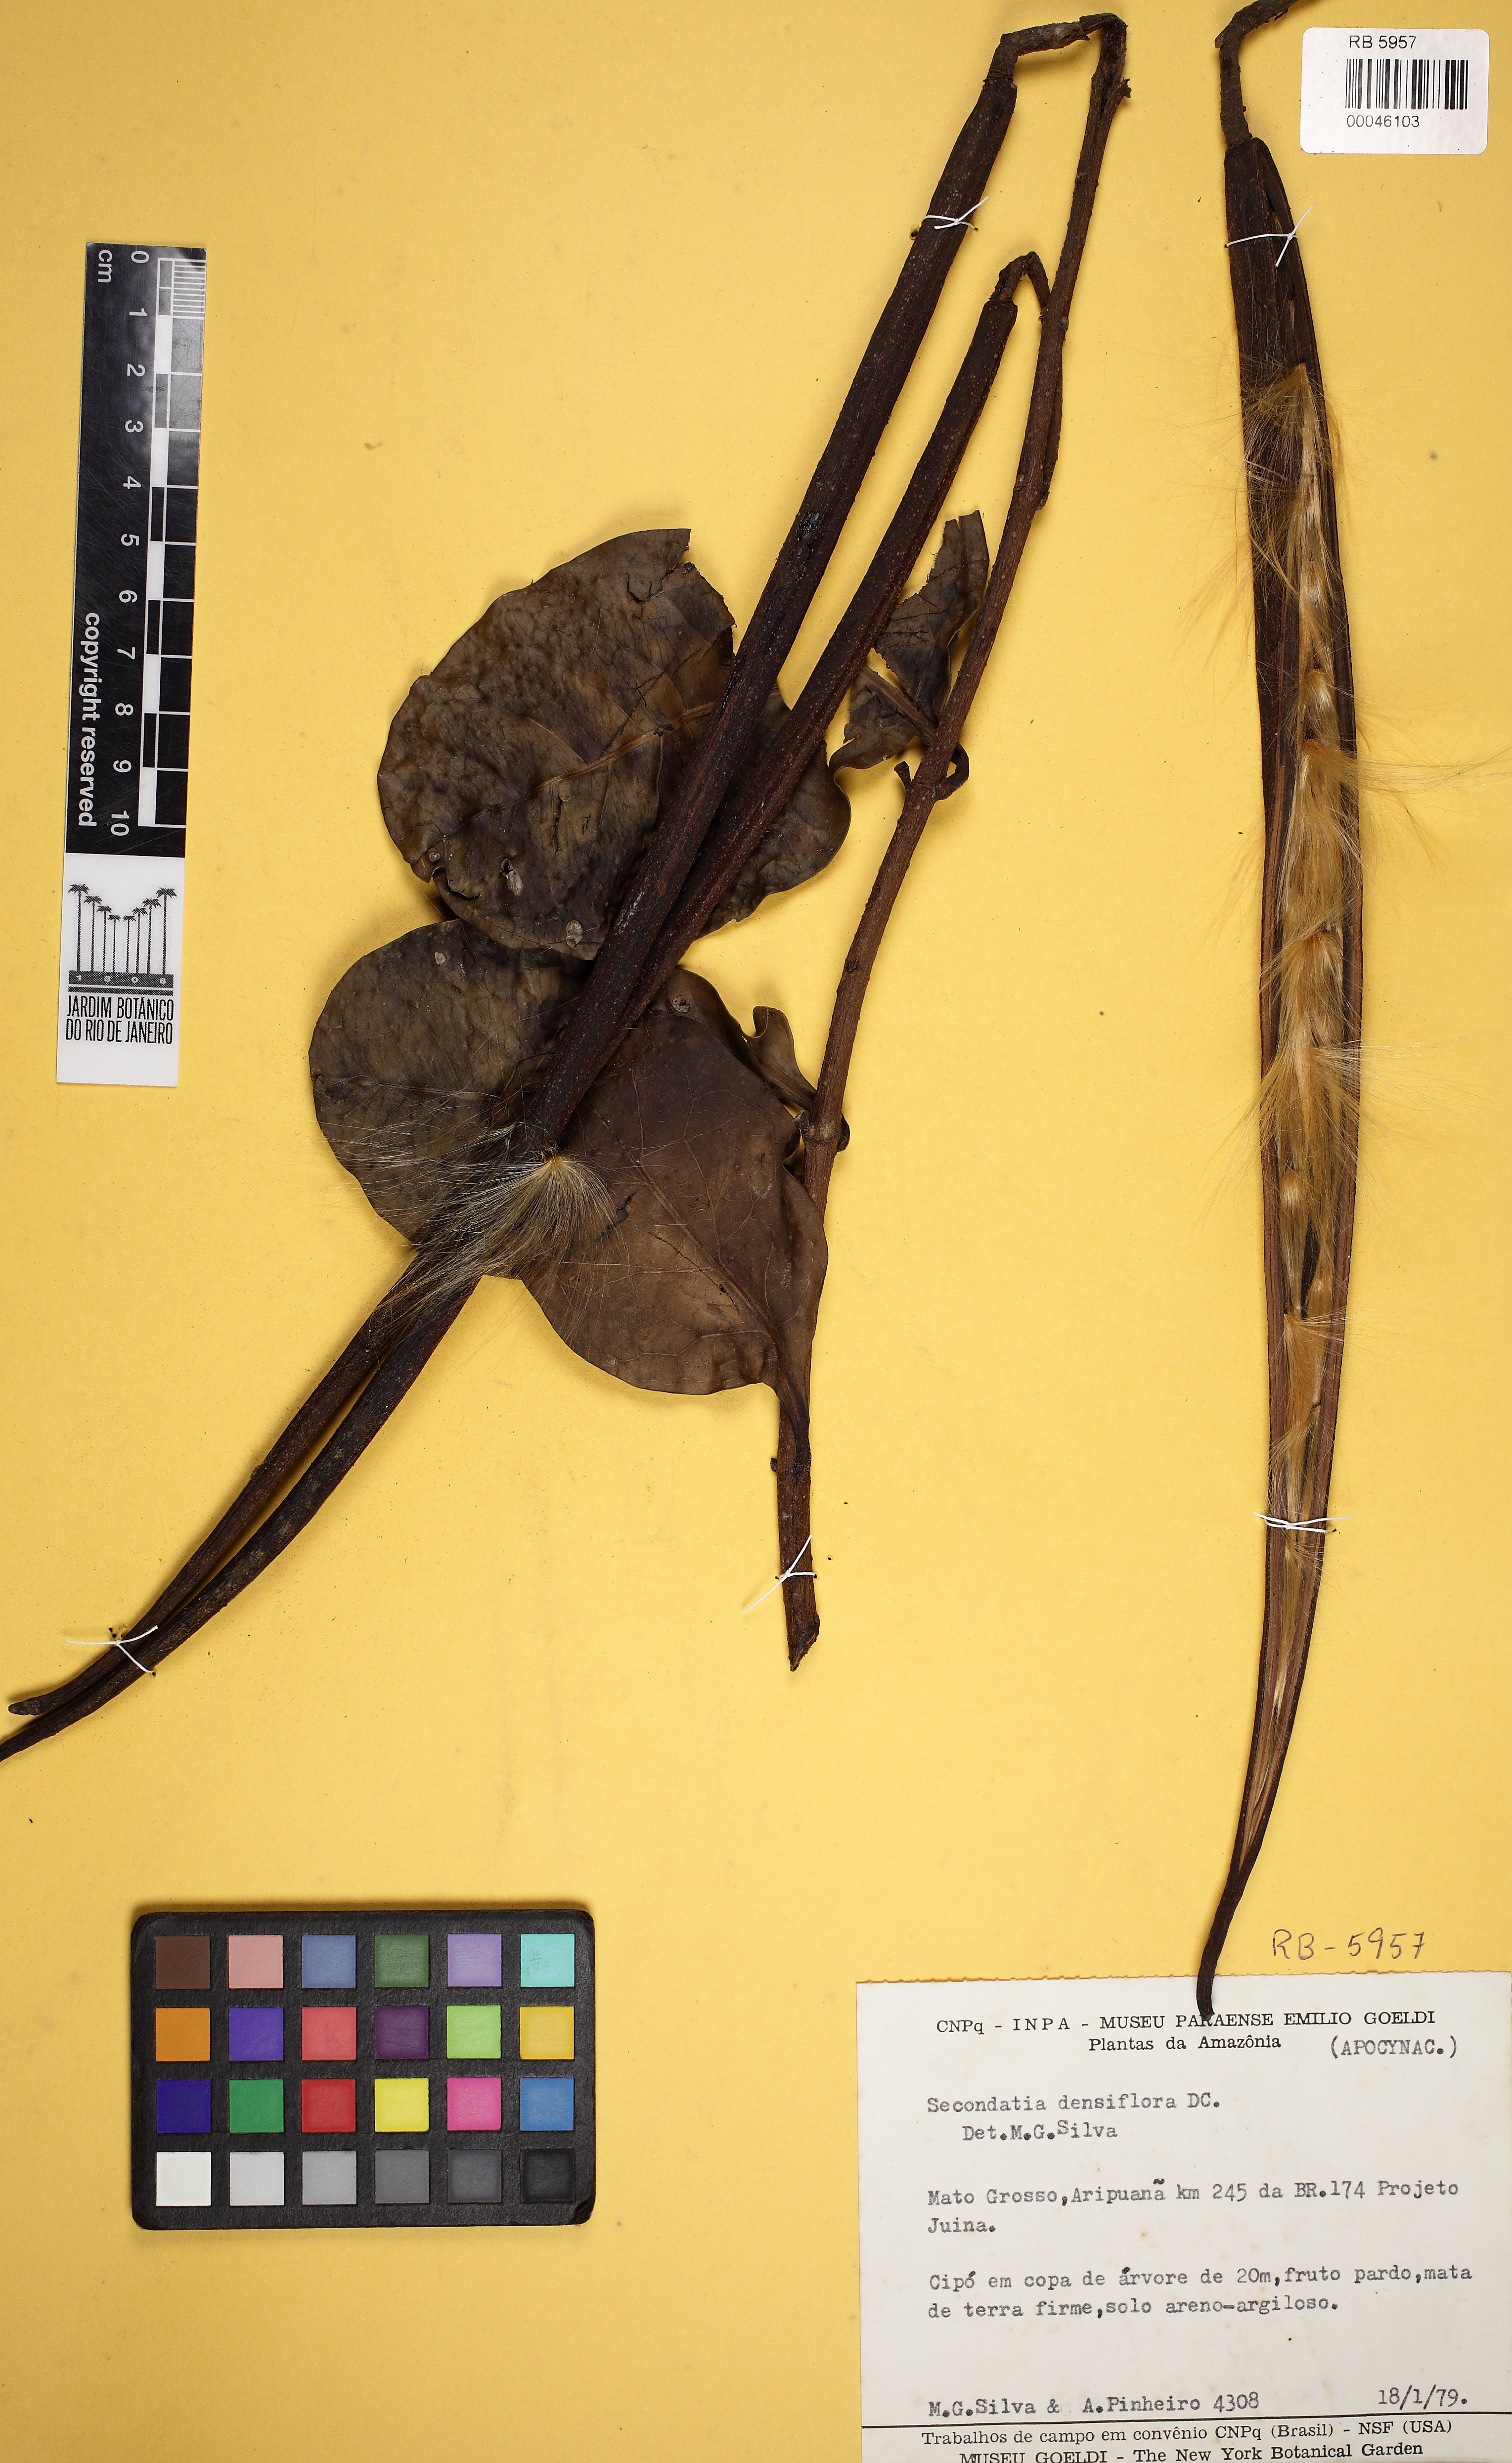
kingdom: Plantae
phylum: Tracheophyta
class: Magnoliopsida
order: Gentianales
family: Apocynaceae
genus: Secondatia
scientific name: Secondatia densiflora
